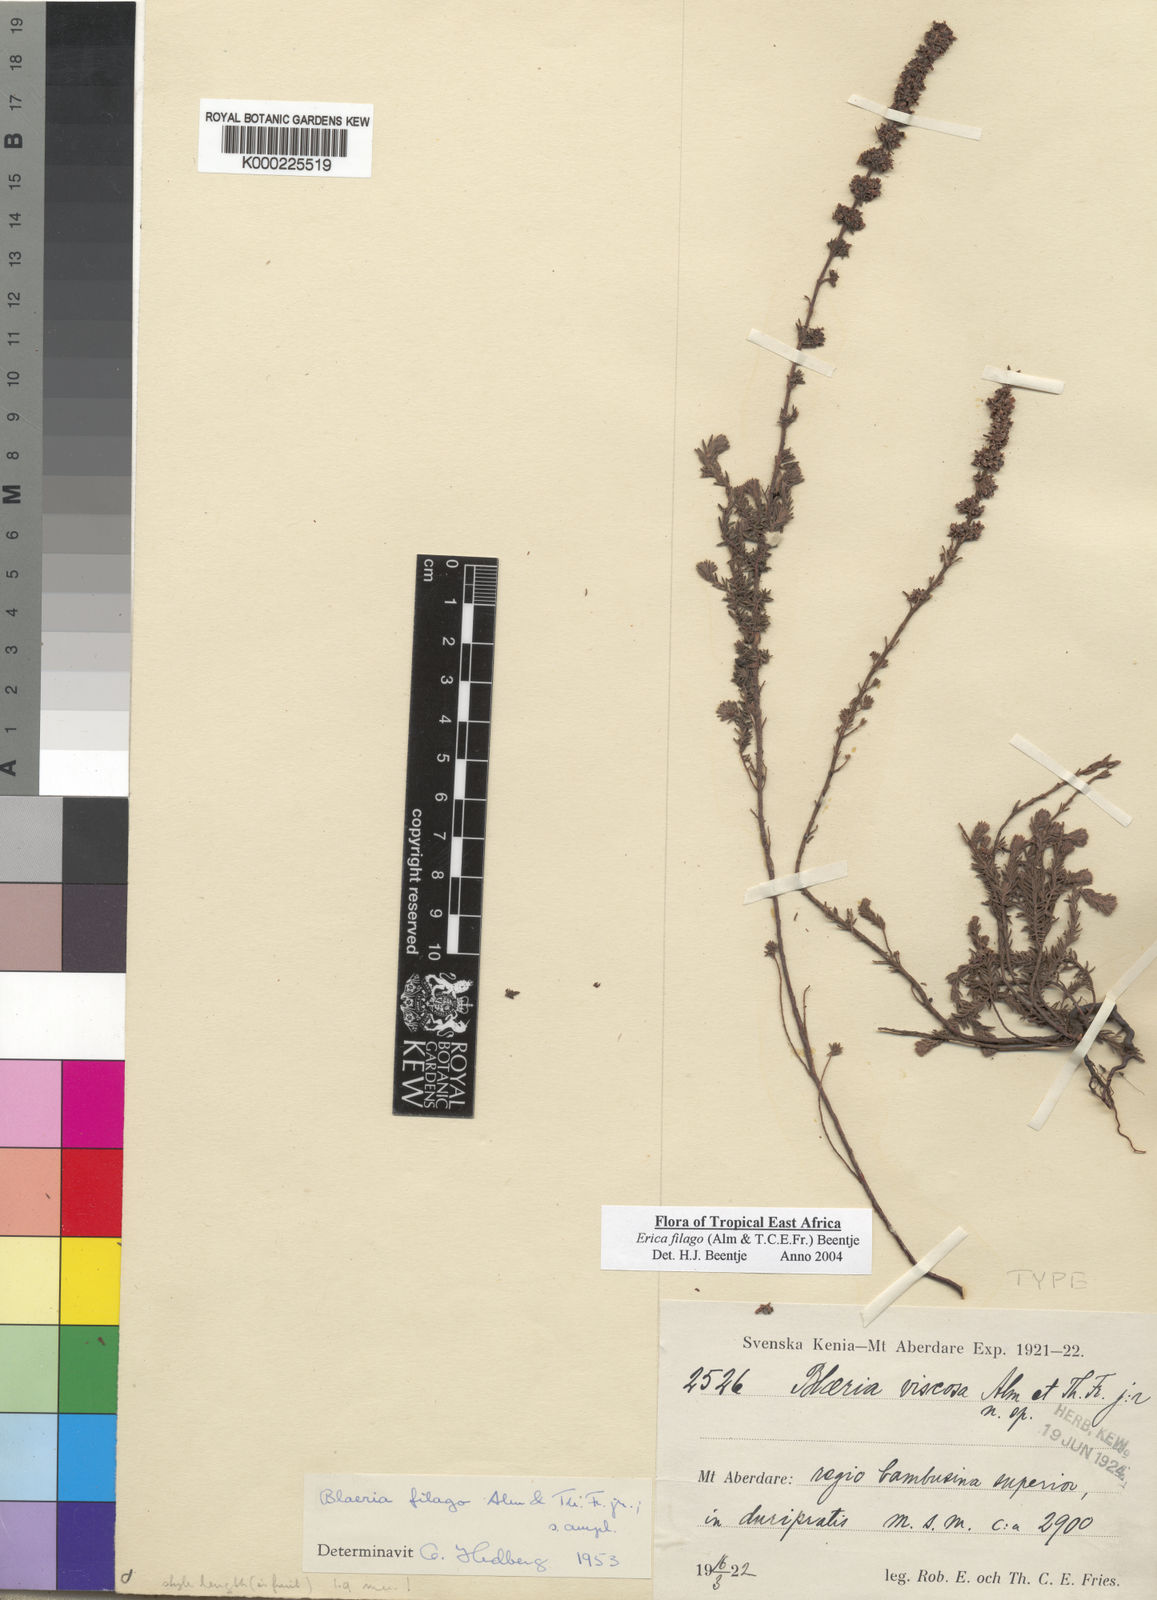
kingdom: Plantae
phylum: Tracheophyta
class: Magnoliopsida
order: Ericales
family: Ericaceae
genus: Erica
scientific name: Erica filago
